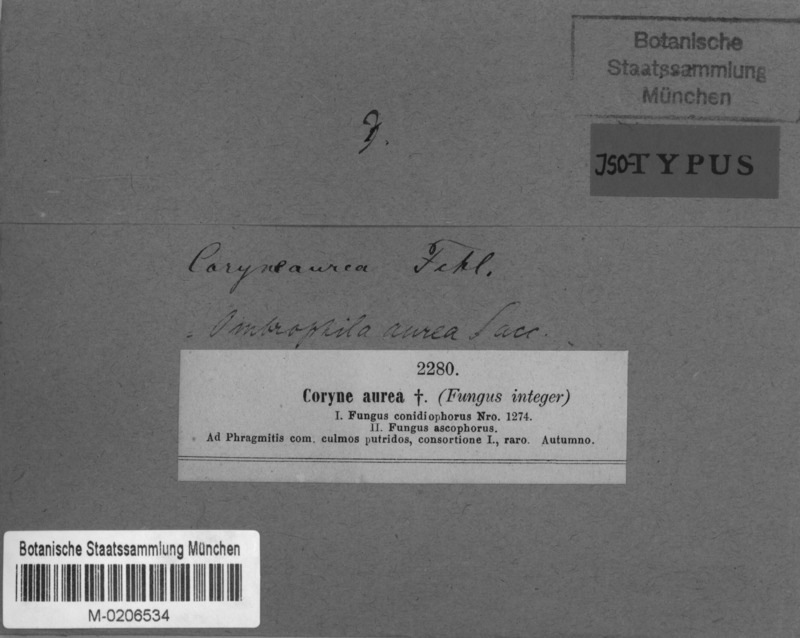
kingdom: Fungi
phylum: Ascomycota
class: Leotiomycetes
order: Helotiales
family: Gelatinodiscaceae
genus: Coryne
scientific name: Coryne
